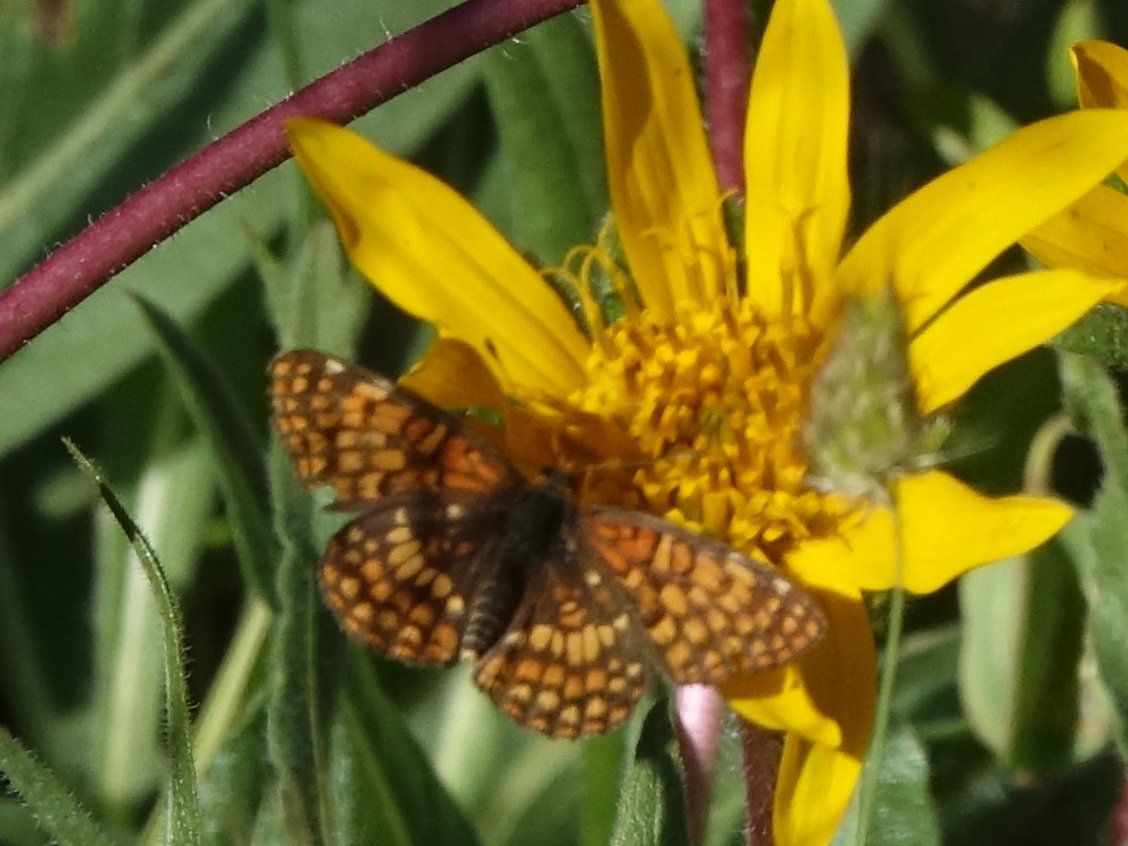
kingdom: Animalia
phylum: Arthropoda
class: Insecta
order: Lepidoptera
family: Nymphalidae
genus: Chlosyne
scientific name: Chlosyne palla
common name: Northern Checkerspot
